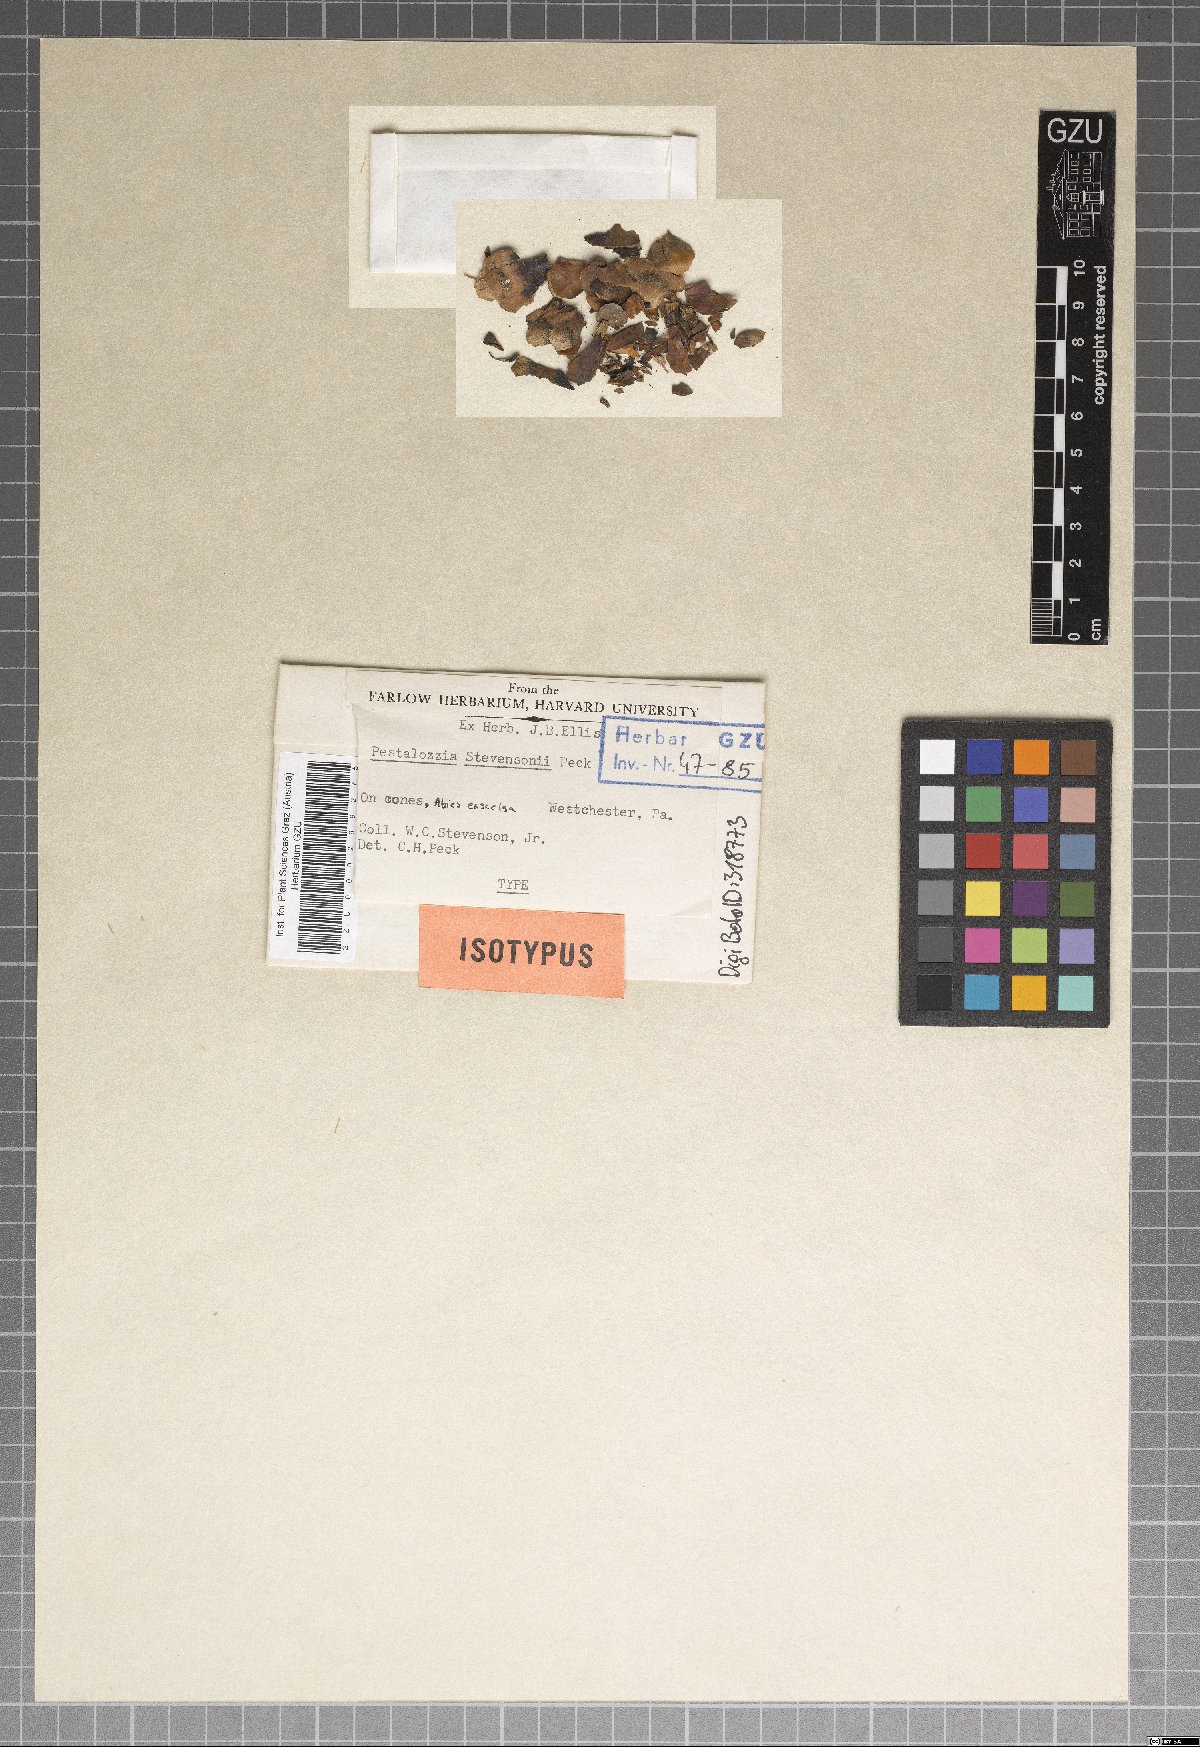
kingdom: Fungi
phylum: Ascomycota
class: Sordariomycetes
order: Amphisphaeriales
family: Pestalotiopsidaceae
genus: Pestalotia
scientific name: Pestalotia stevensonii
